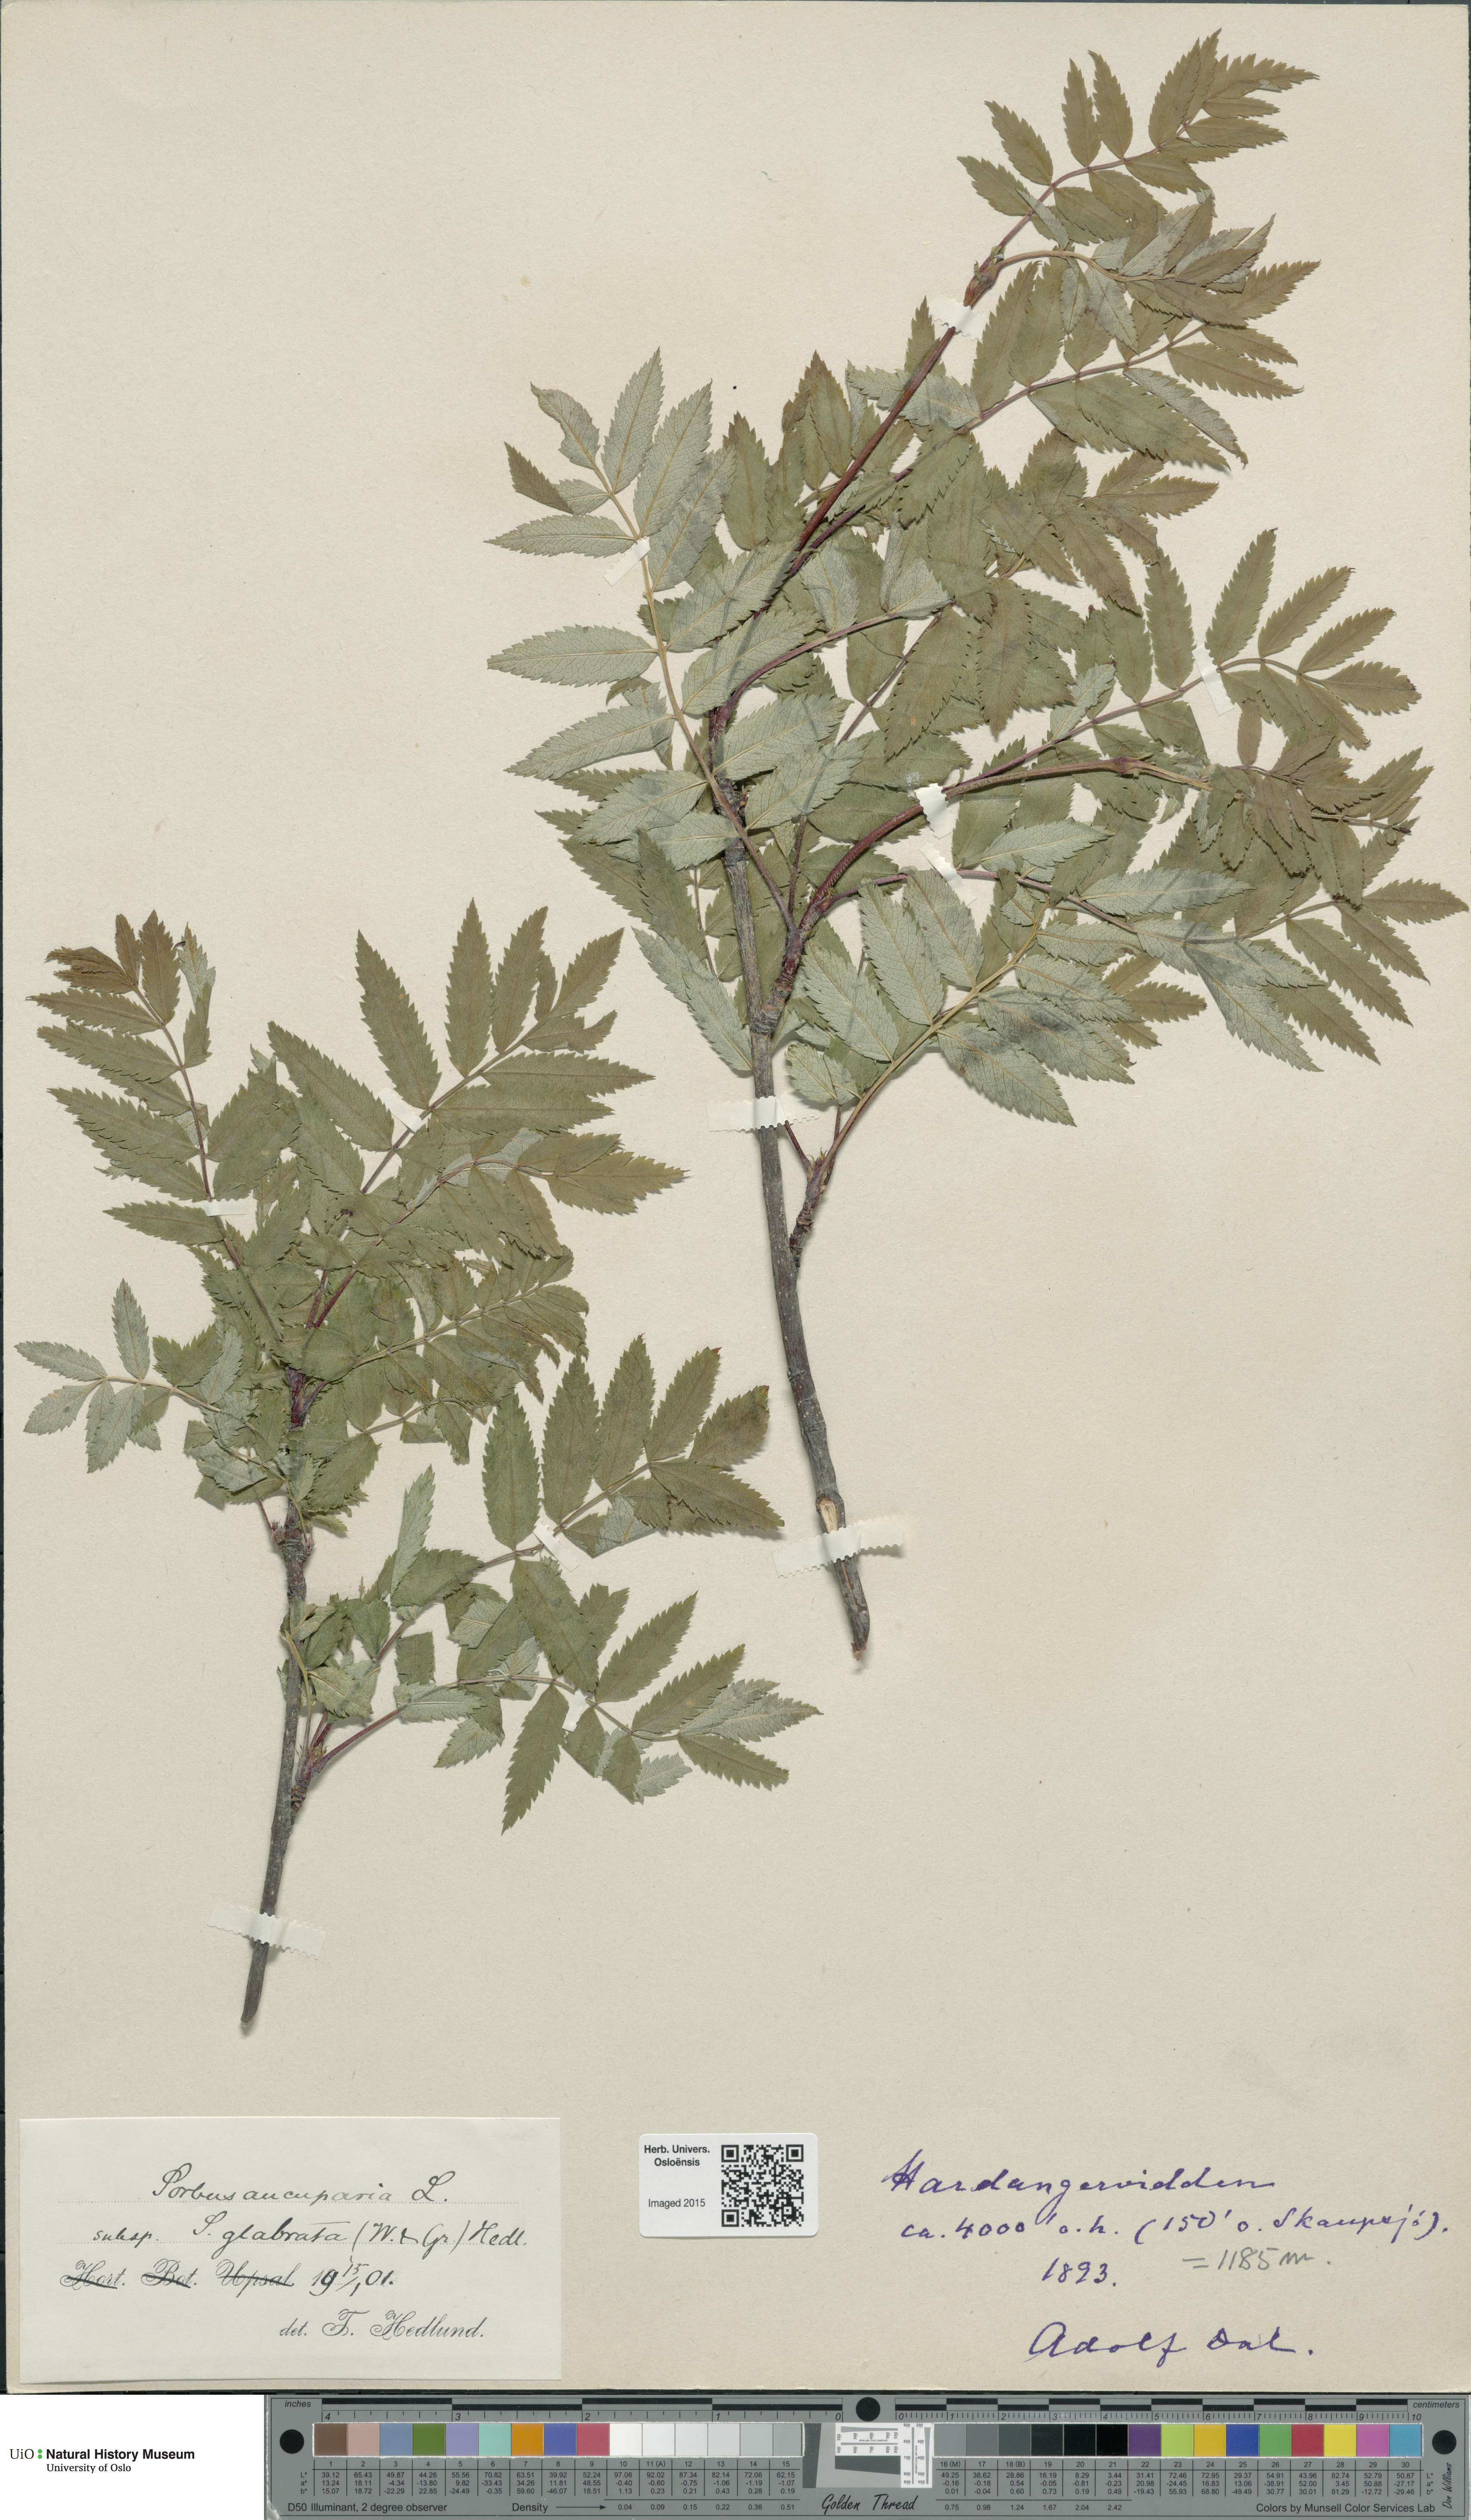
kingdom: Plantae
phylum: Tracheophyta
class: Magnoliopsida
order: Rosales
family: Rosaceae
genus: Sorbus
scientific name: Sorbus aucuparia
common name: Rowan
